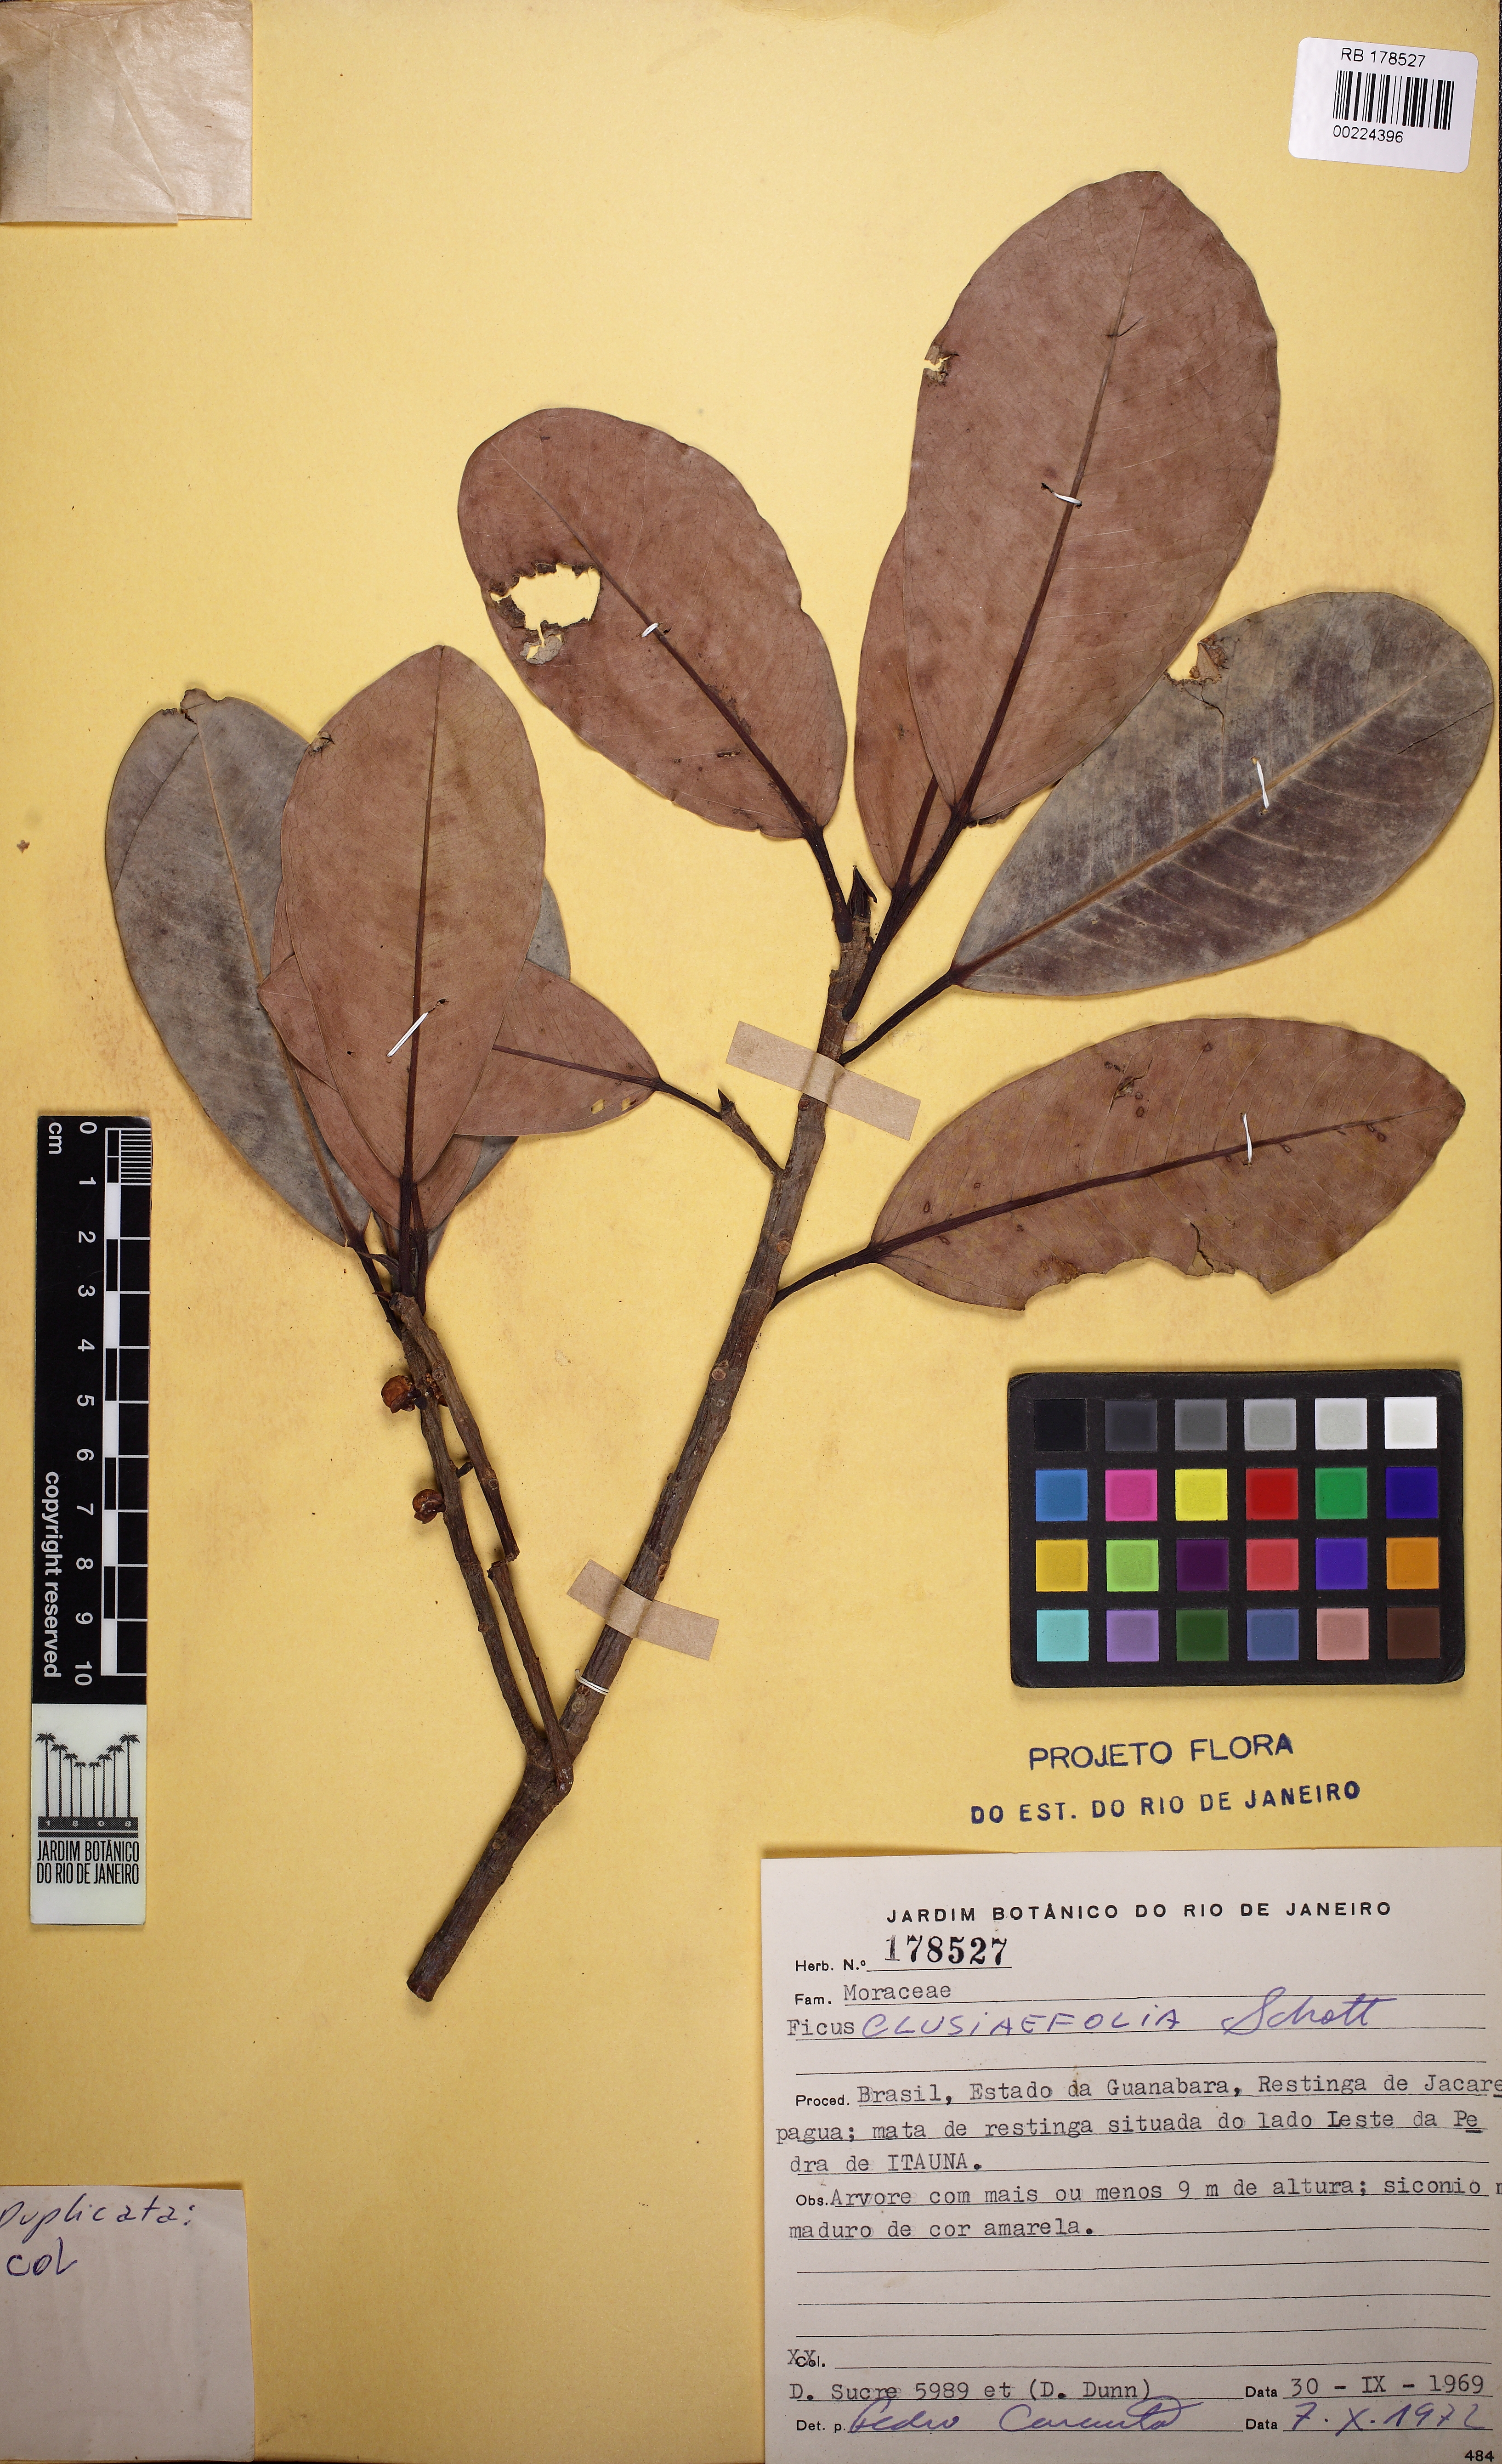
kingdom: Plantae
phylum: Tracheophyta
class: Magnoliopsida
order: Rosales
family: Moraceae
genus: Ficus
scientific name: Ficus americana
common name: Jamaican cherry fig
